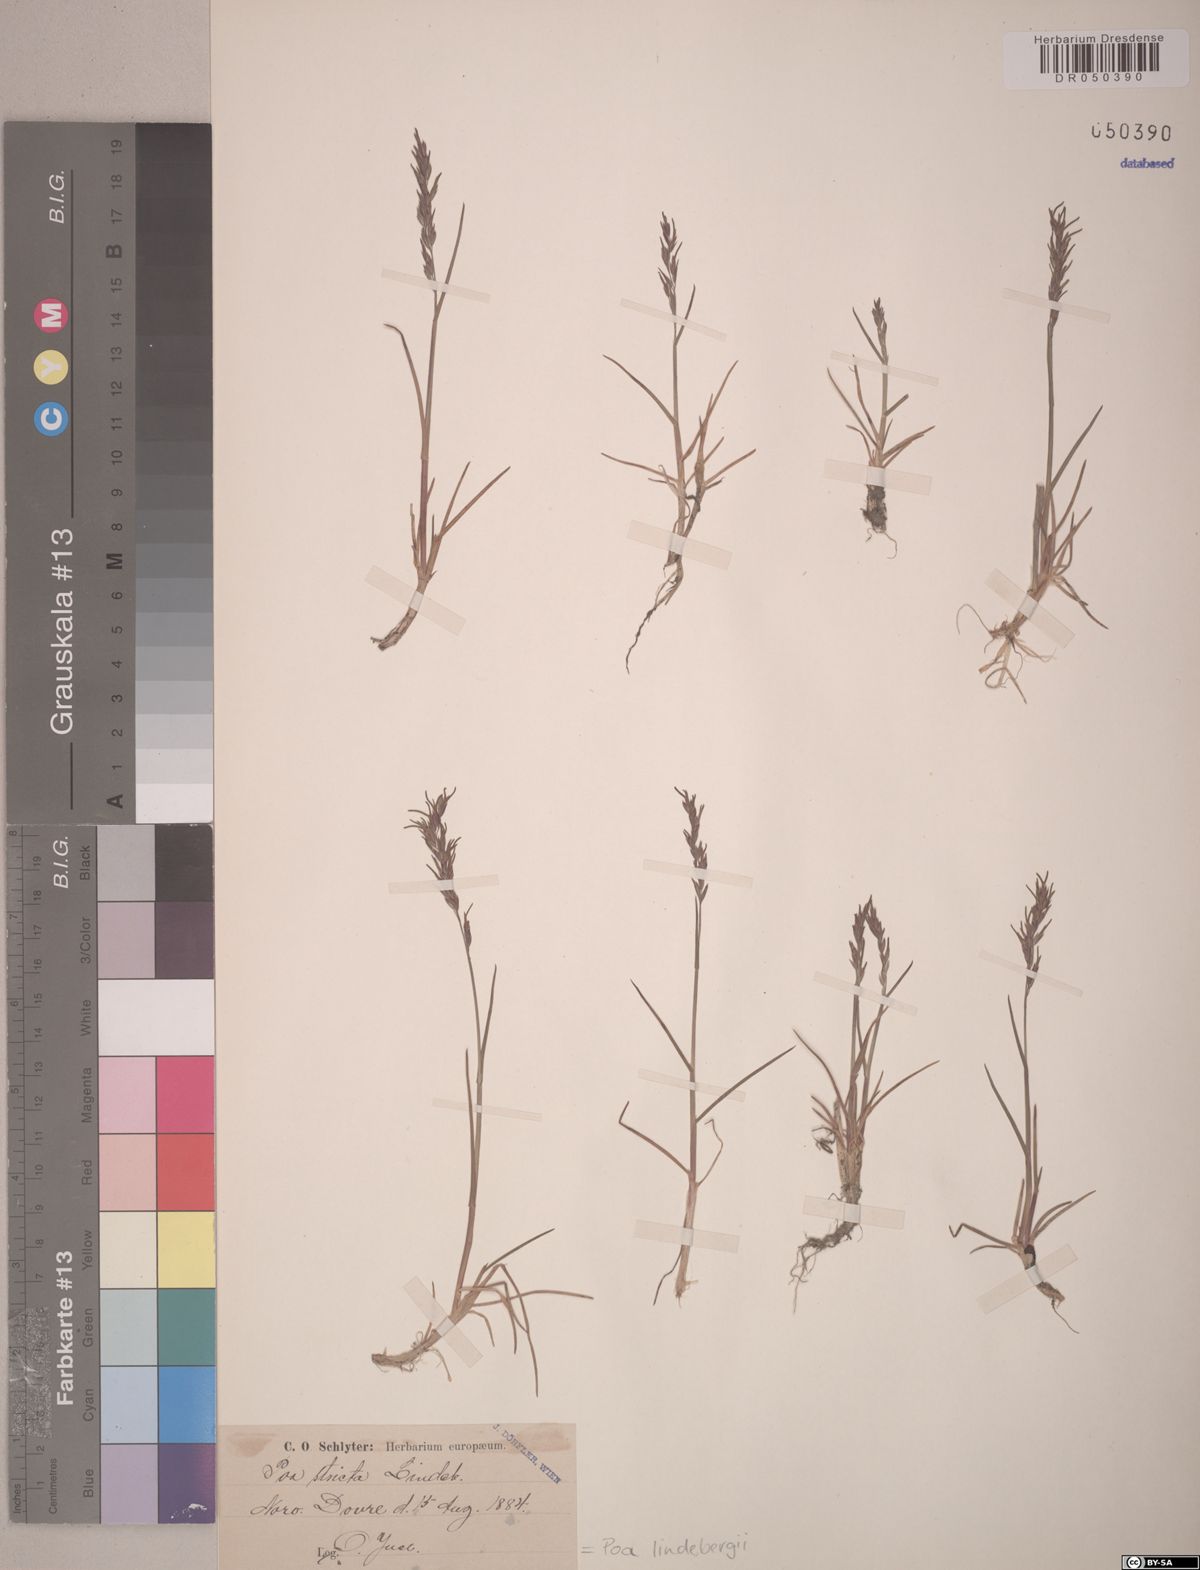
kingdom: Plantae
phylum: Tracheophyta
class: Liliopsida
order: Poales
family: Poaceae
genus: Poa
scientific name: Poa lindebergii
